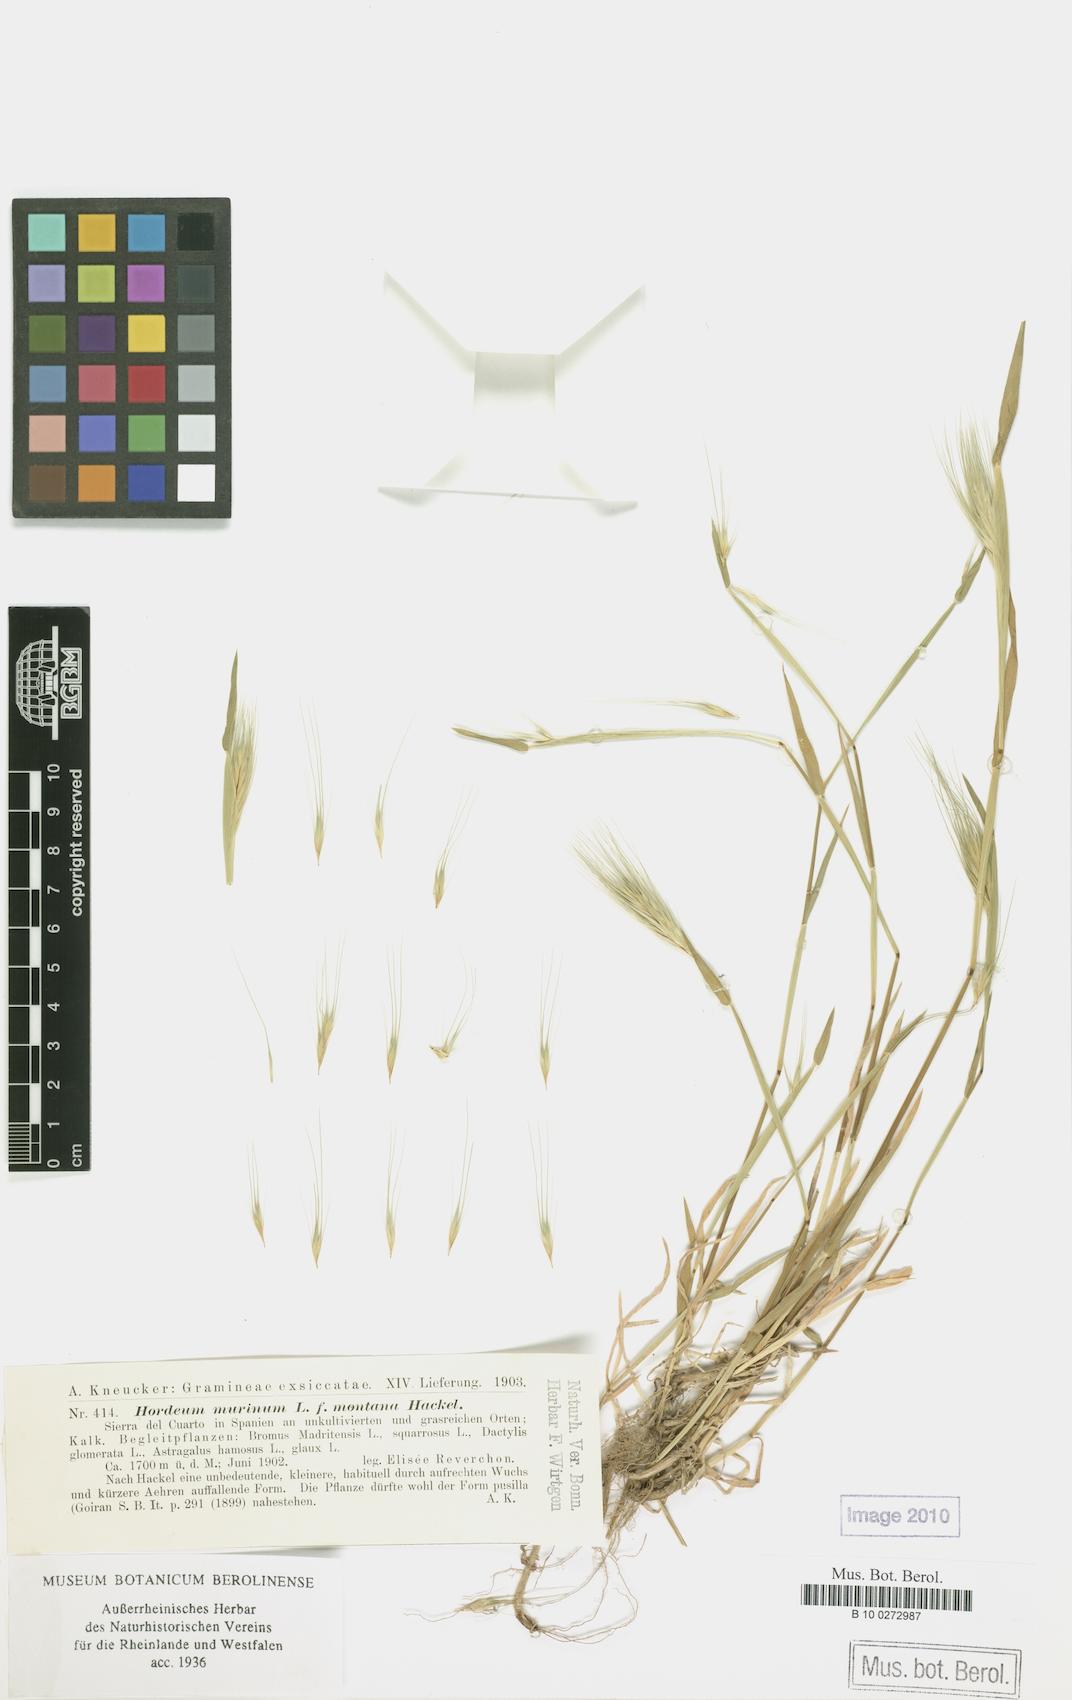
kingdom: Plantae
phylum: Tracheophyta
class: Liliopsida
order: Poales
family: Poaceae
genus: Hordeum
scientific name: Hordeum murinum
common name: Wall barley
